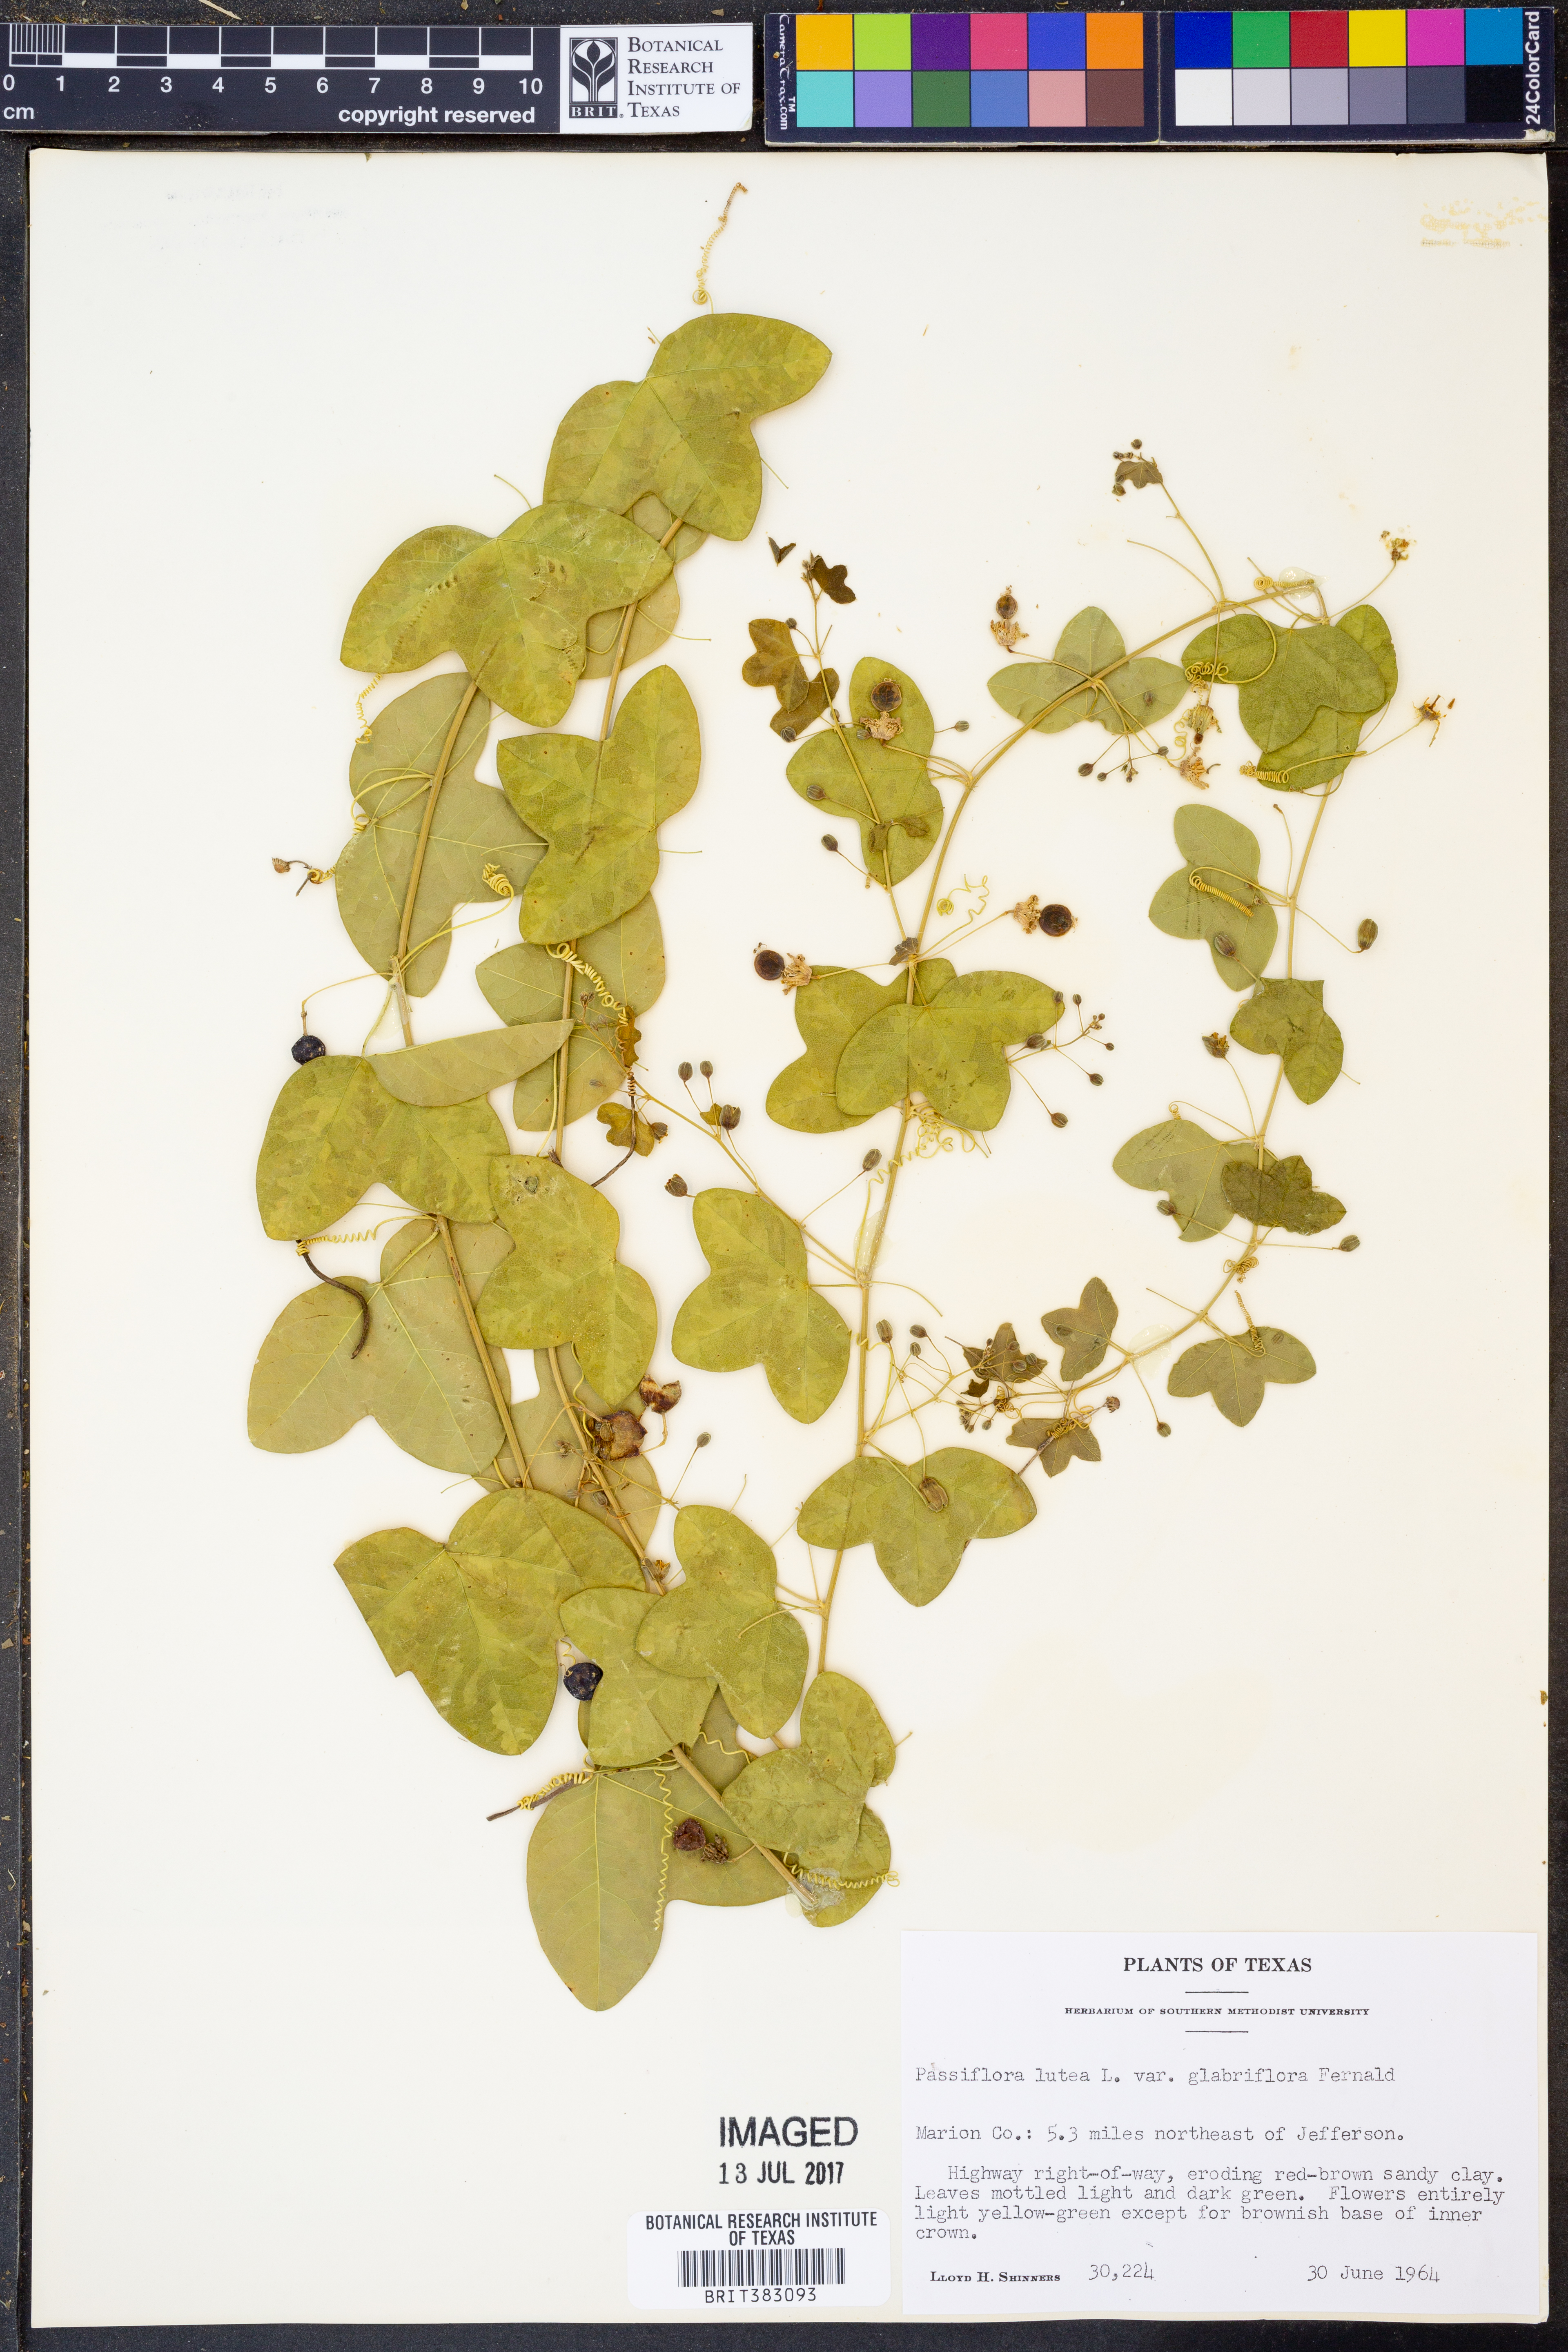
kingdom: Plantae
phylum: Tracheophyta
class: Magnoliopsida
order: Malpighiales
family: Passifloraceae
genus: Passiflora
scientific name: Passiflora lutea
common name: Yellow passionflower
